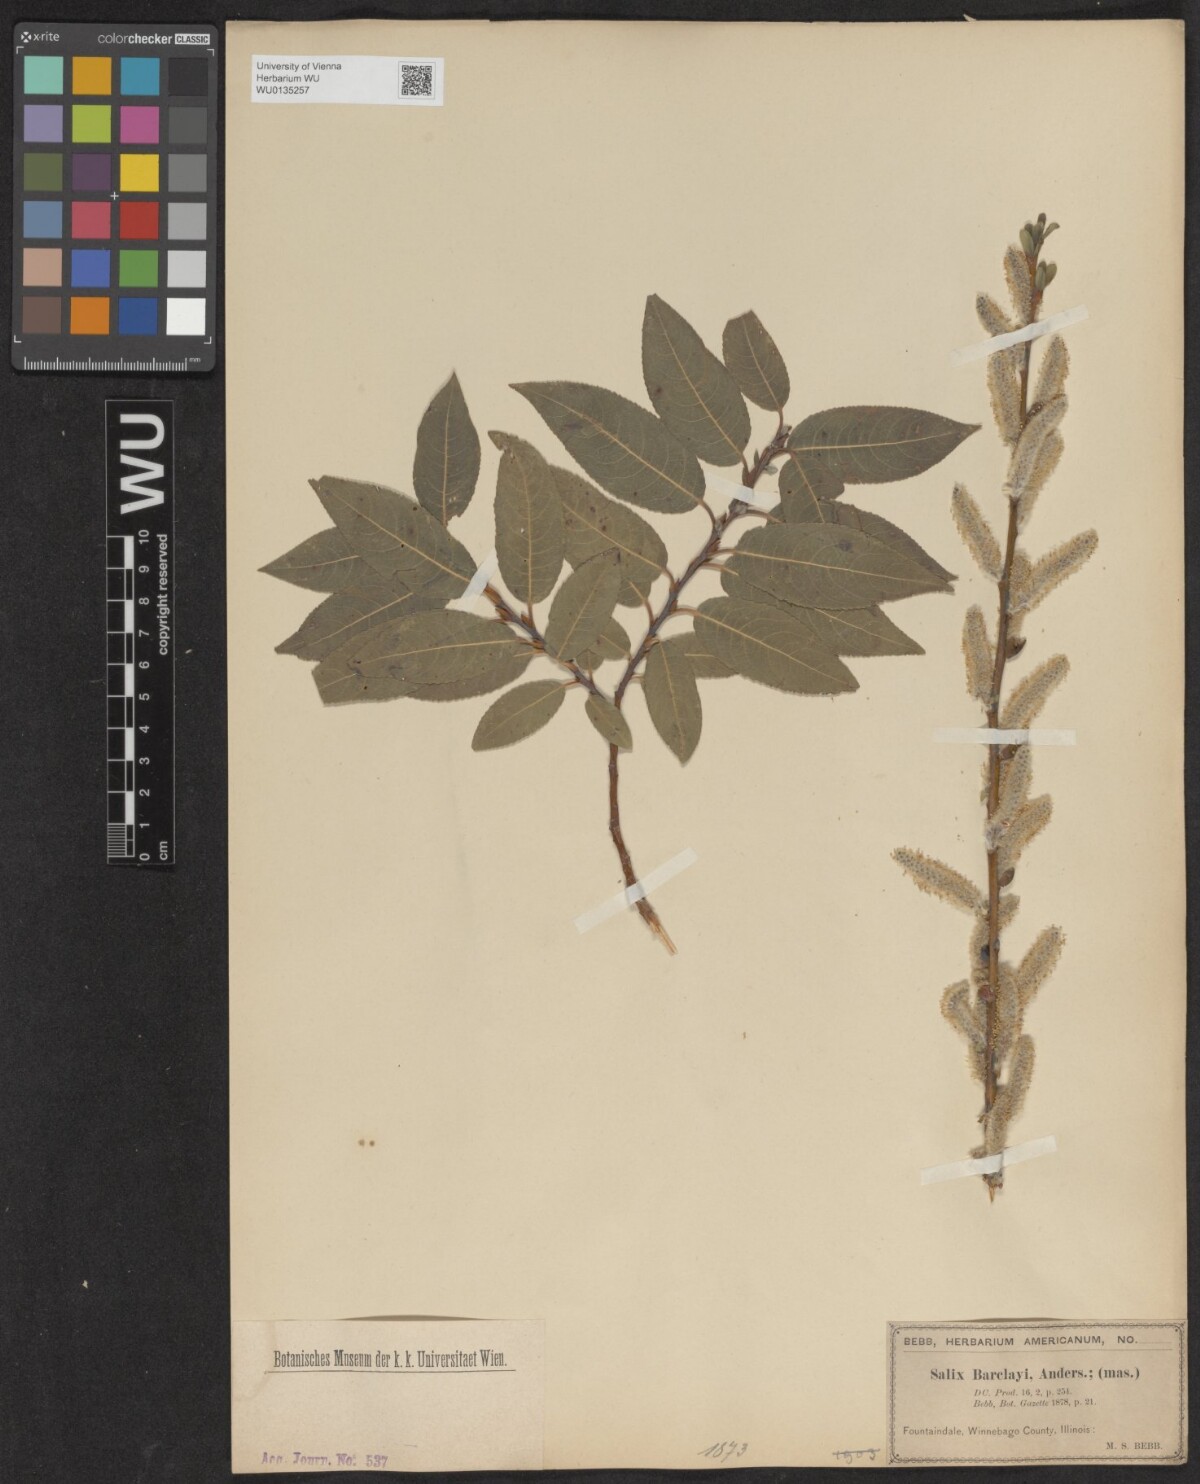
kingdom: Plantae
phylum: Tracheophyta
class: Magnoliopsida
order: Malpighiales
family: Salicaceae
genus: Salix
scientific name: Salix barclayi
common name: Mountain willow
